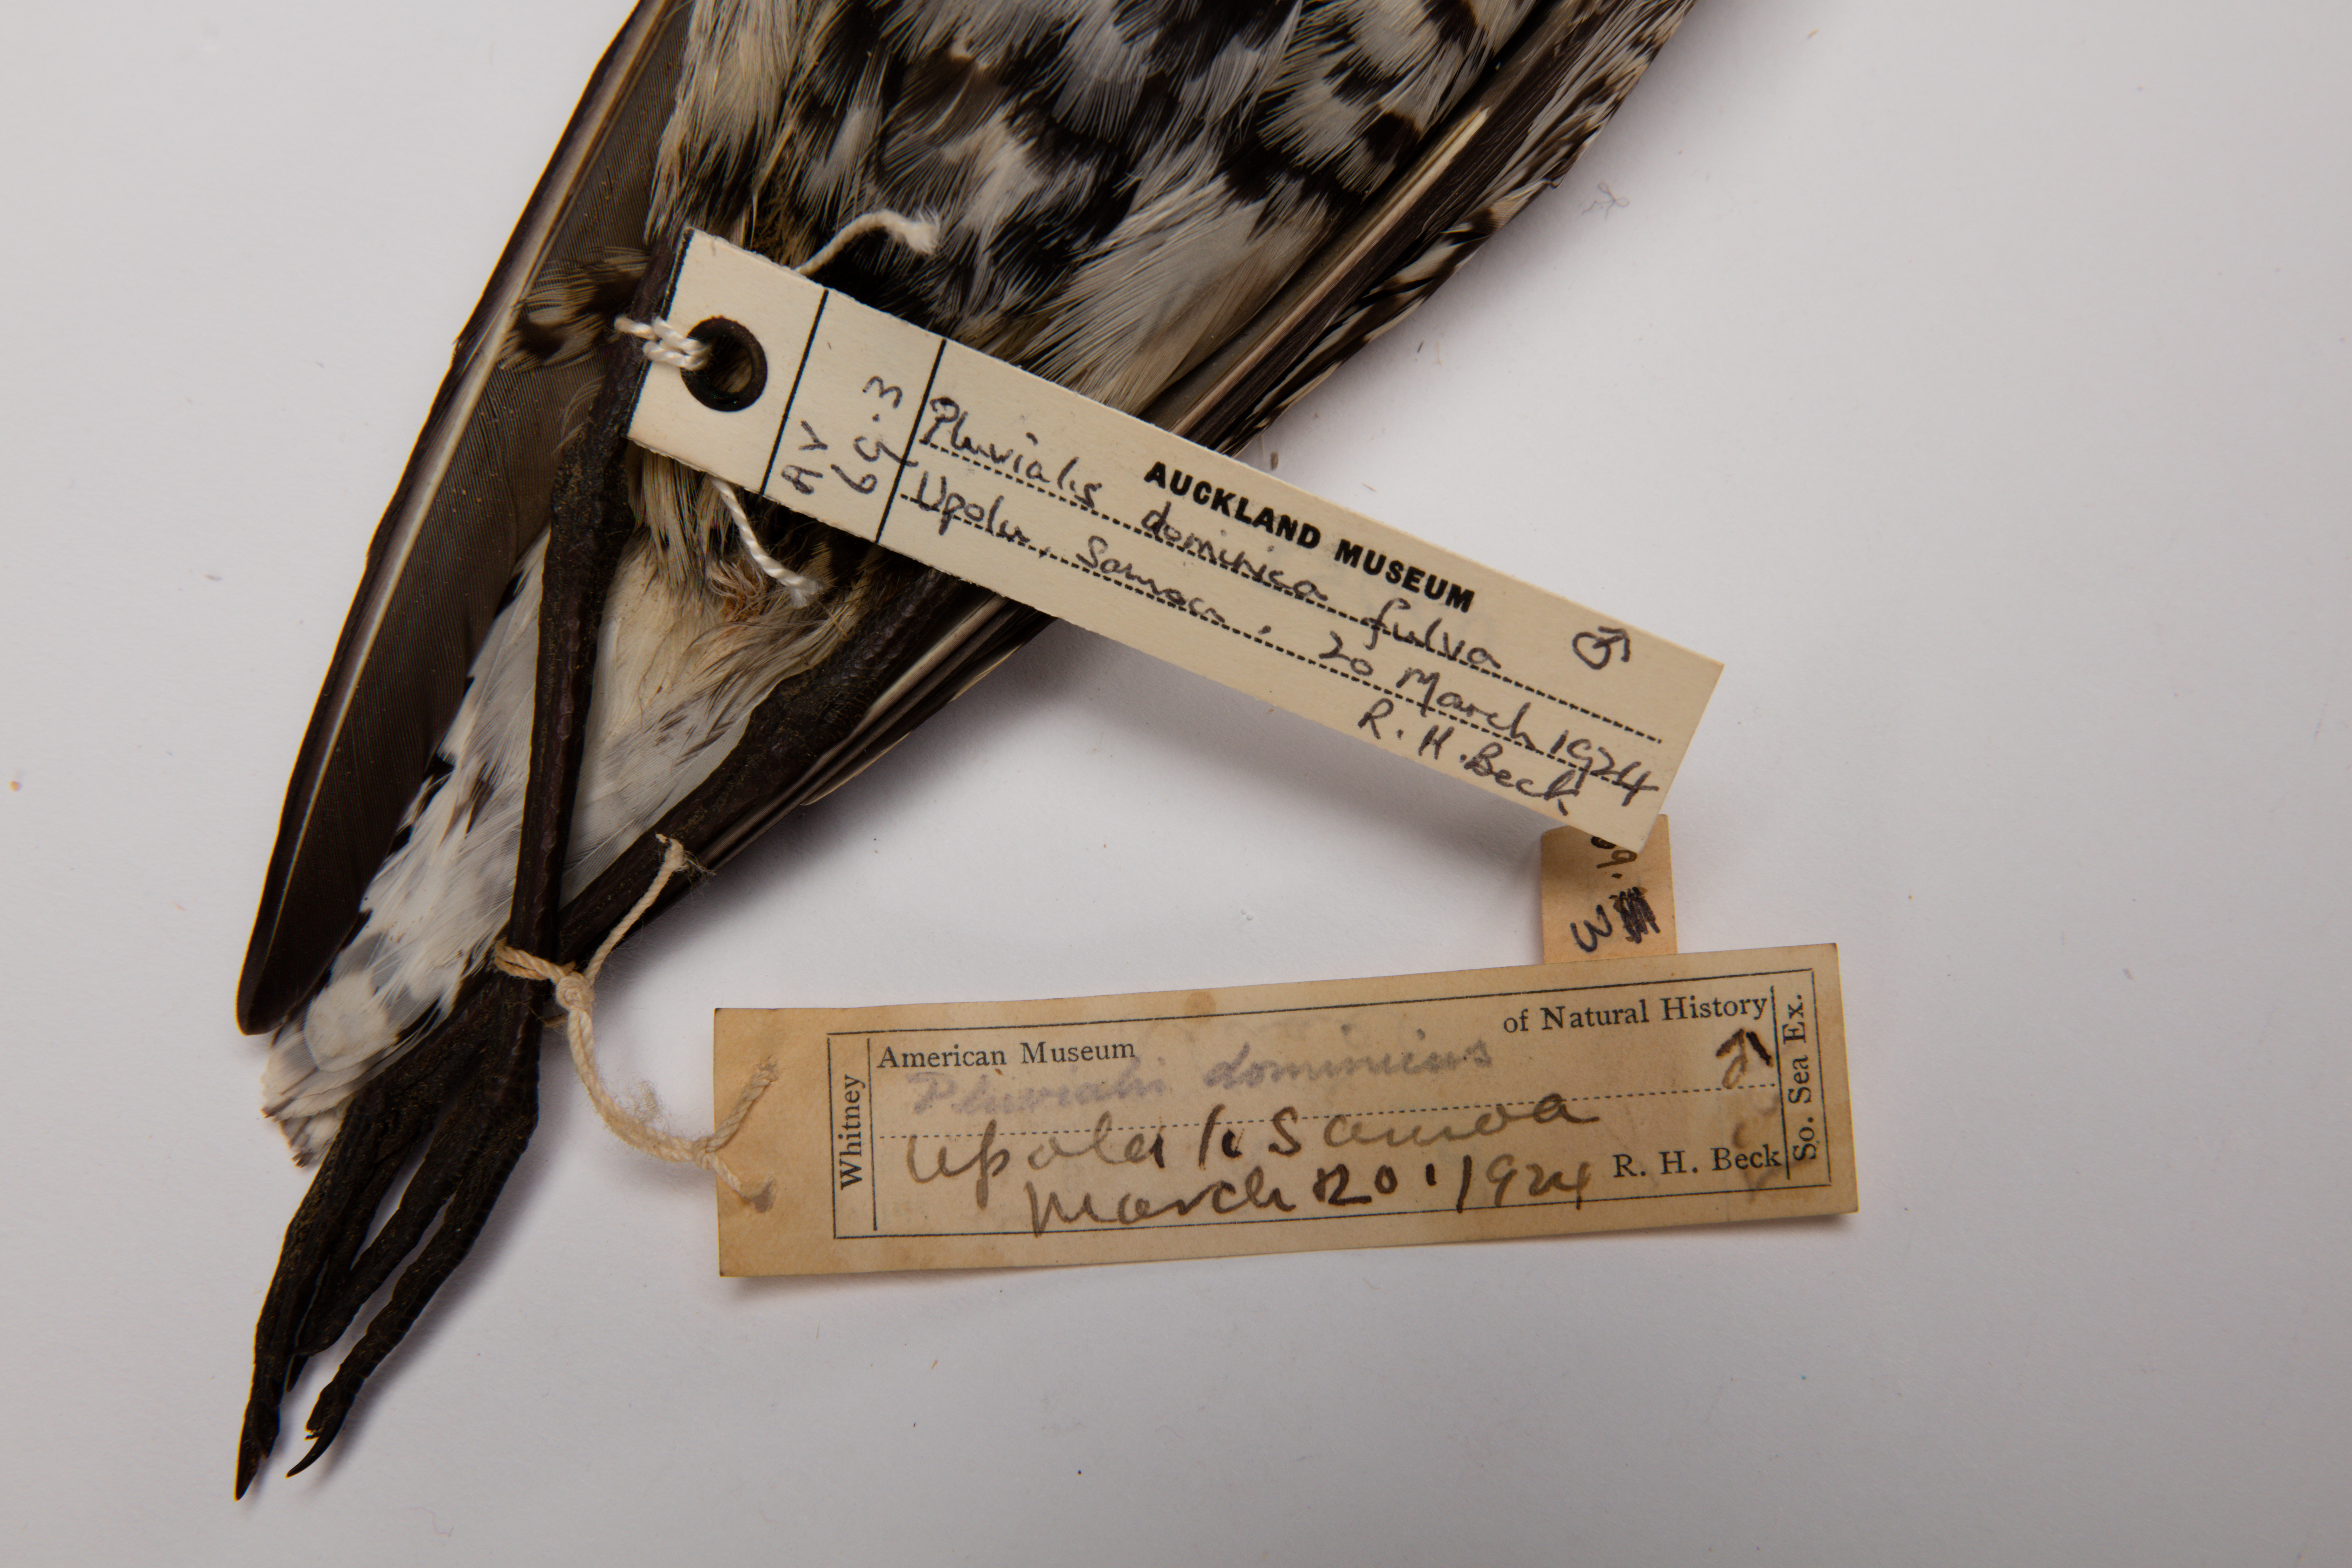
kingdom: Animalia
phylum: Chordata
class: Aves
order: Charadriiformes
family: Charadriidae
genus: Pluvialis
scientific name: Pluvialis fulva
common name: Pacific golden plover
